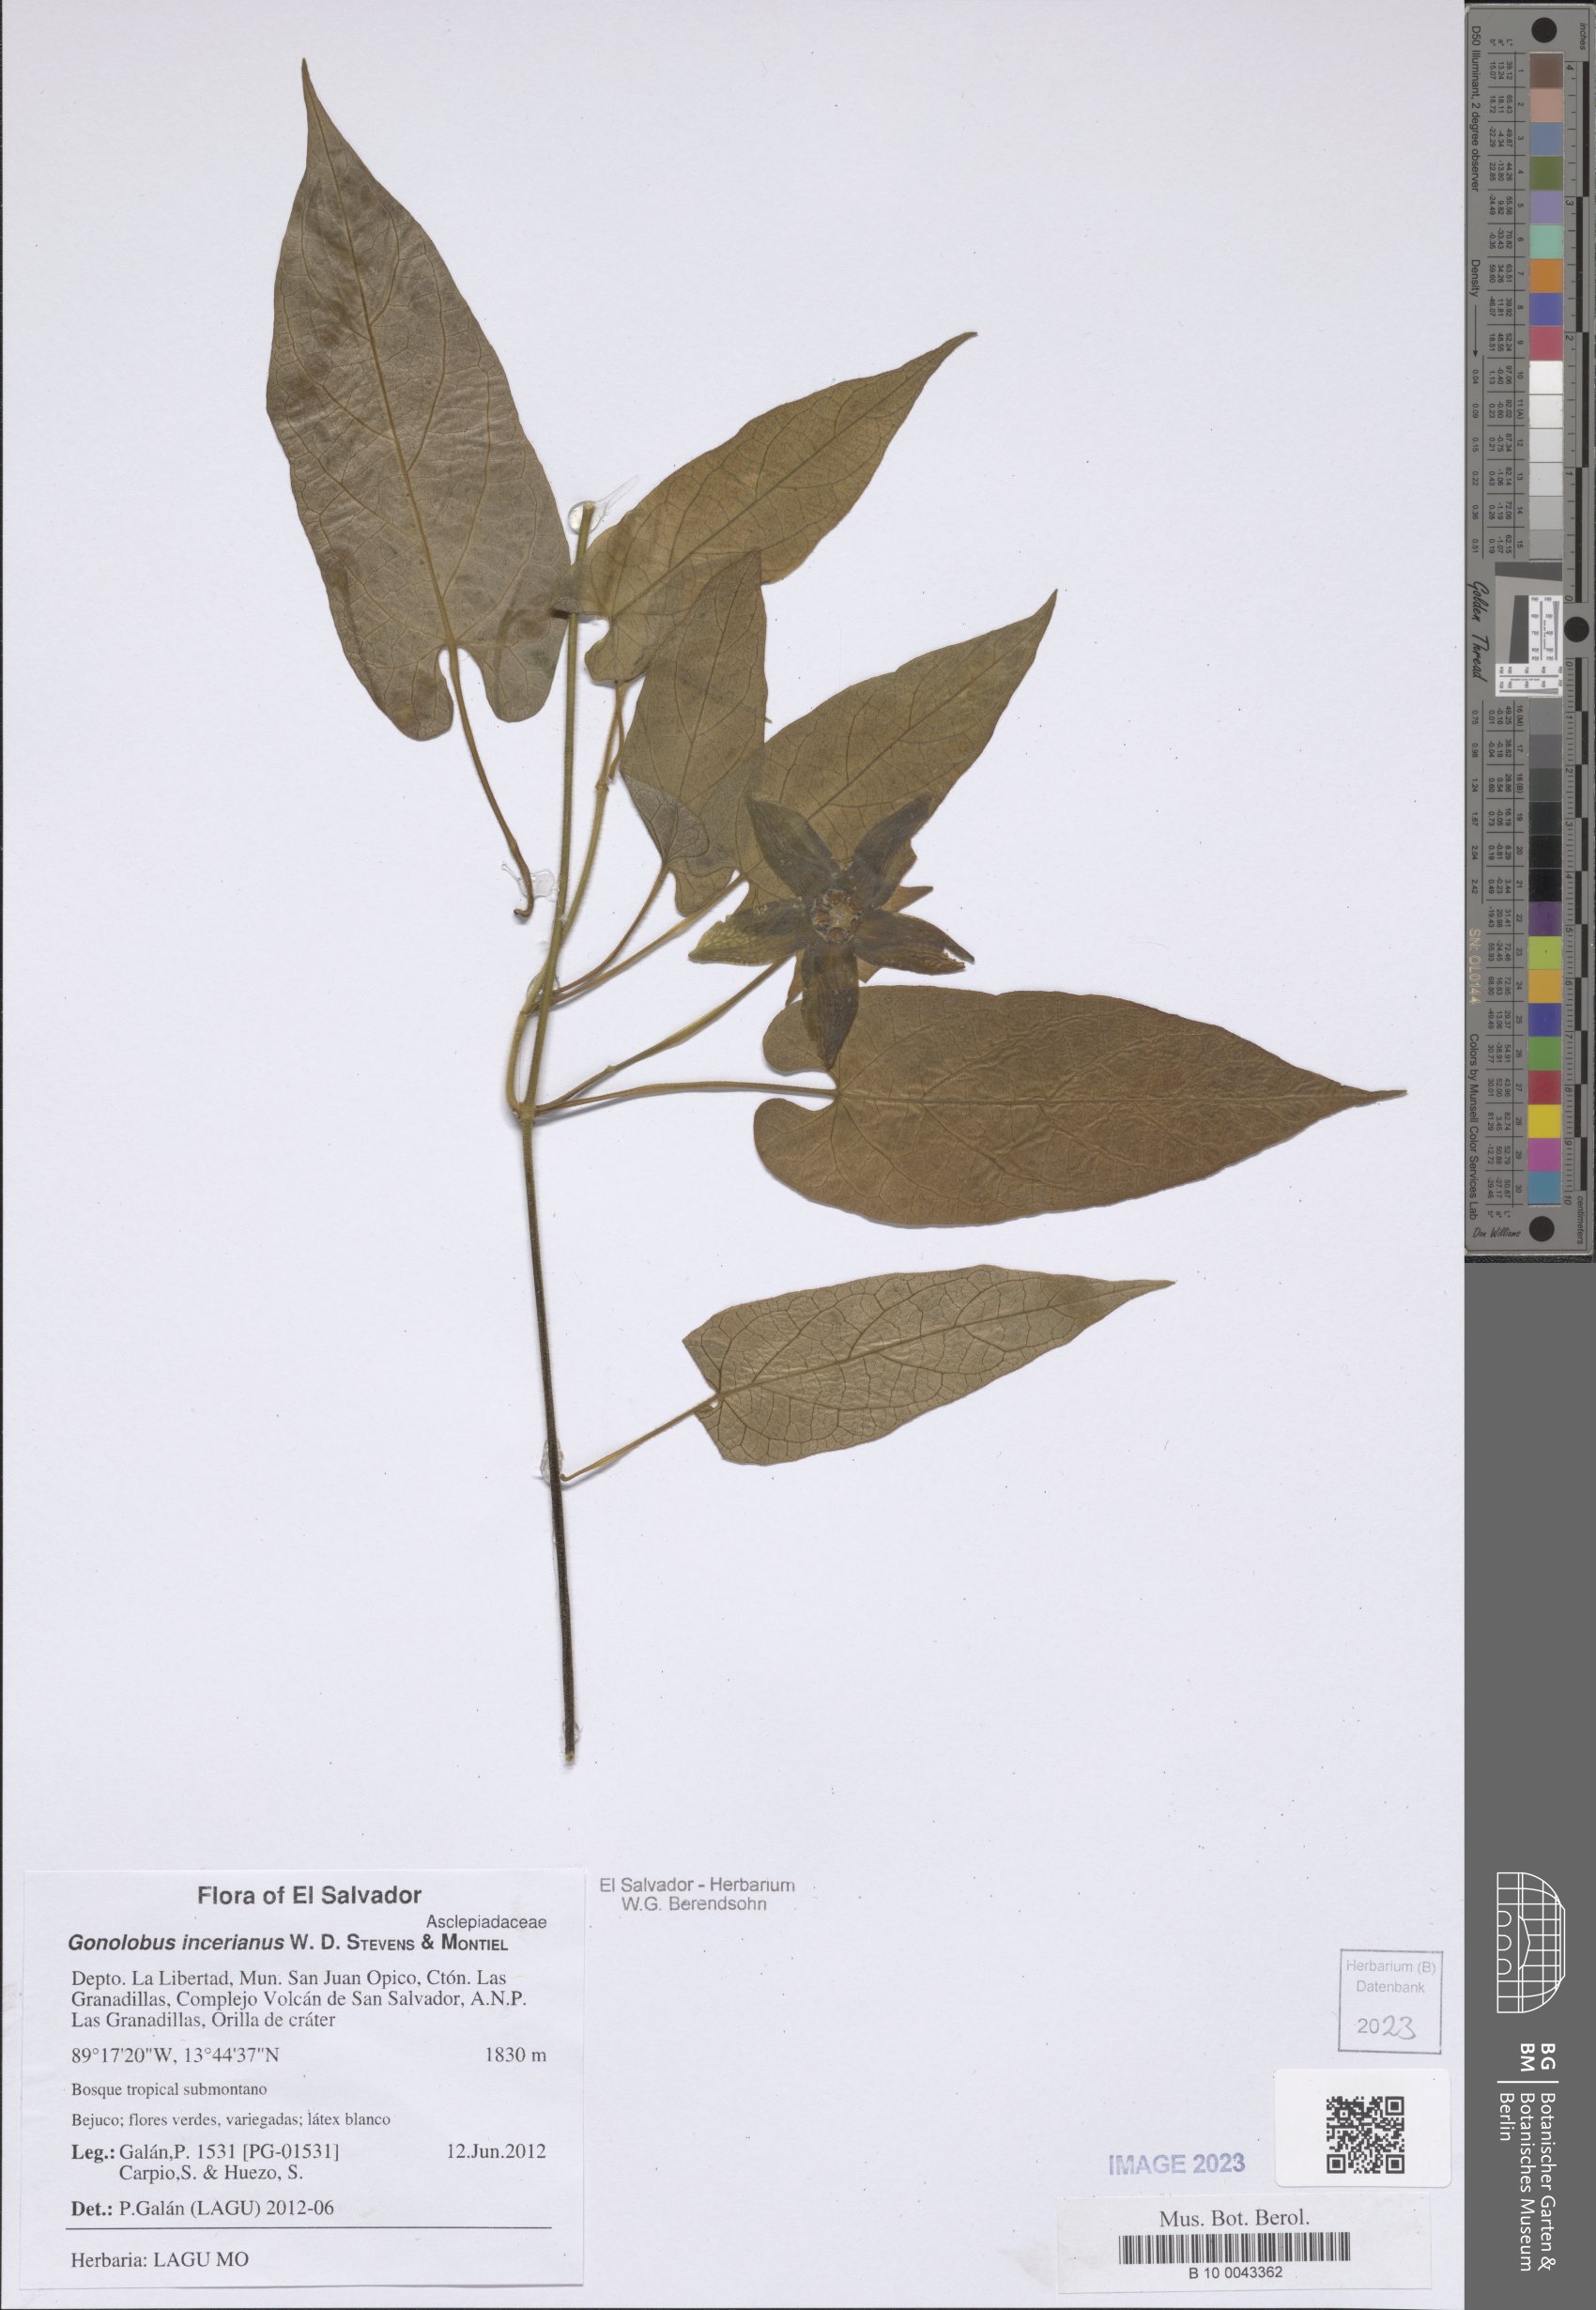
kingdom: Plantae
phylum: Tracheophyta
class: Magnoliopsida
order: Gentianales
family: Apocynaceae
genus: Gonolobus
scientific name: Gonolobus incerianus
